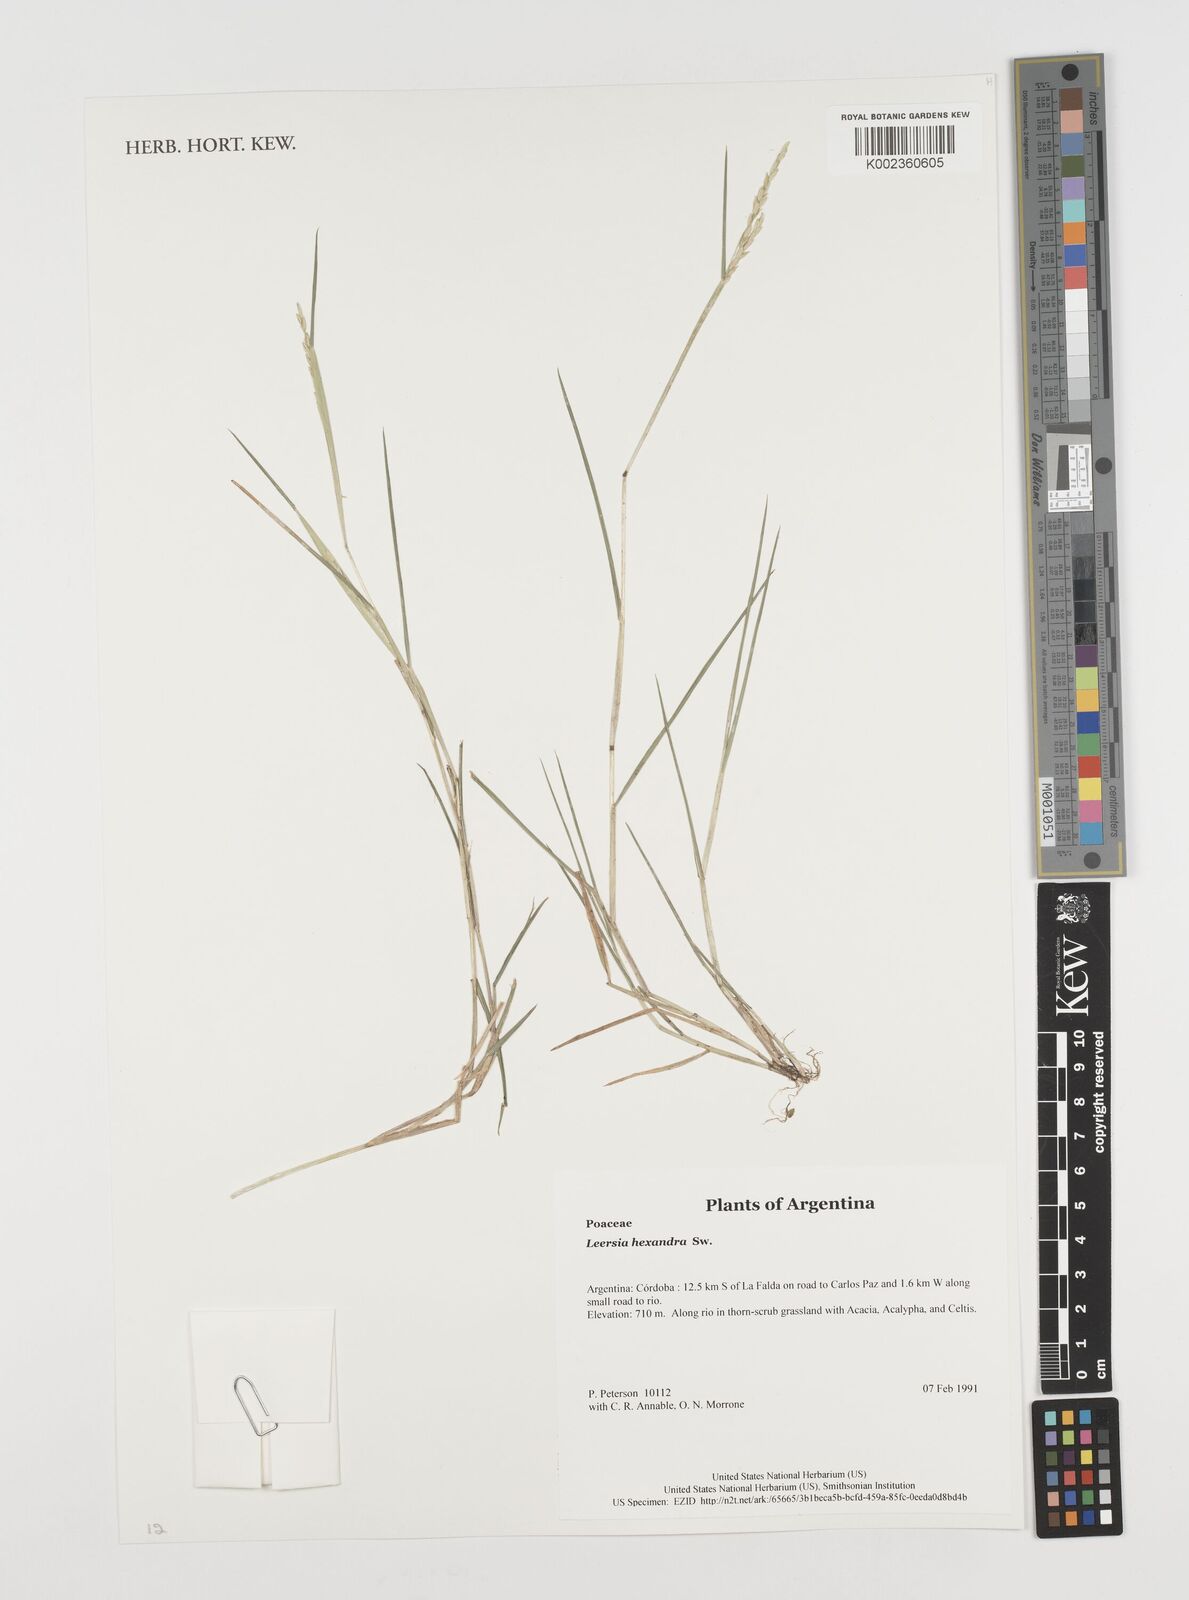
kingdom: Plantae
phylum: Tracheophyta
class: Liliopsida
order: Poales
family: Poaceae
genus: Leersia
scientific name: Leersia hexandra
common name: Southern cut grass
